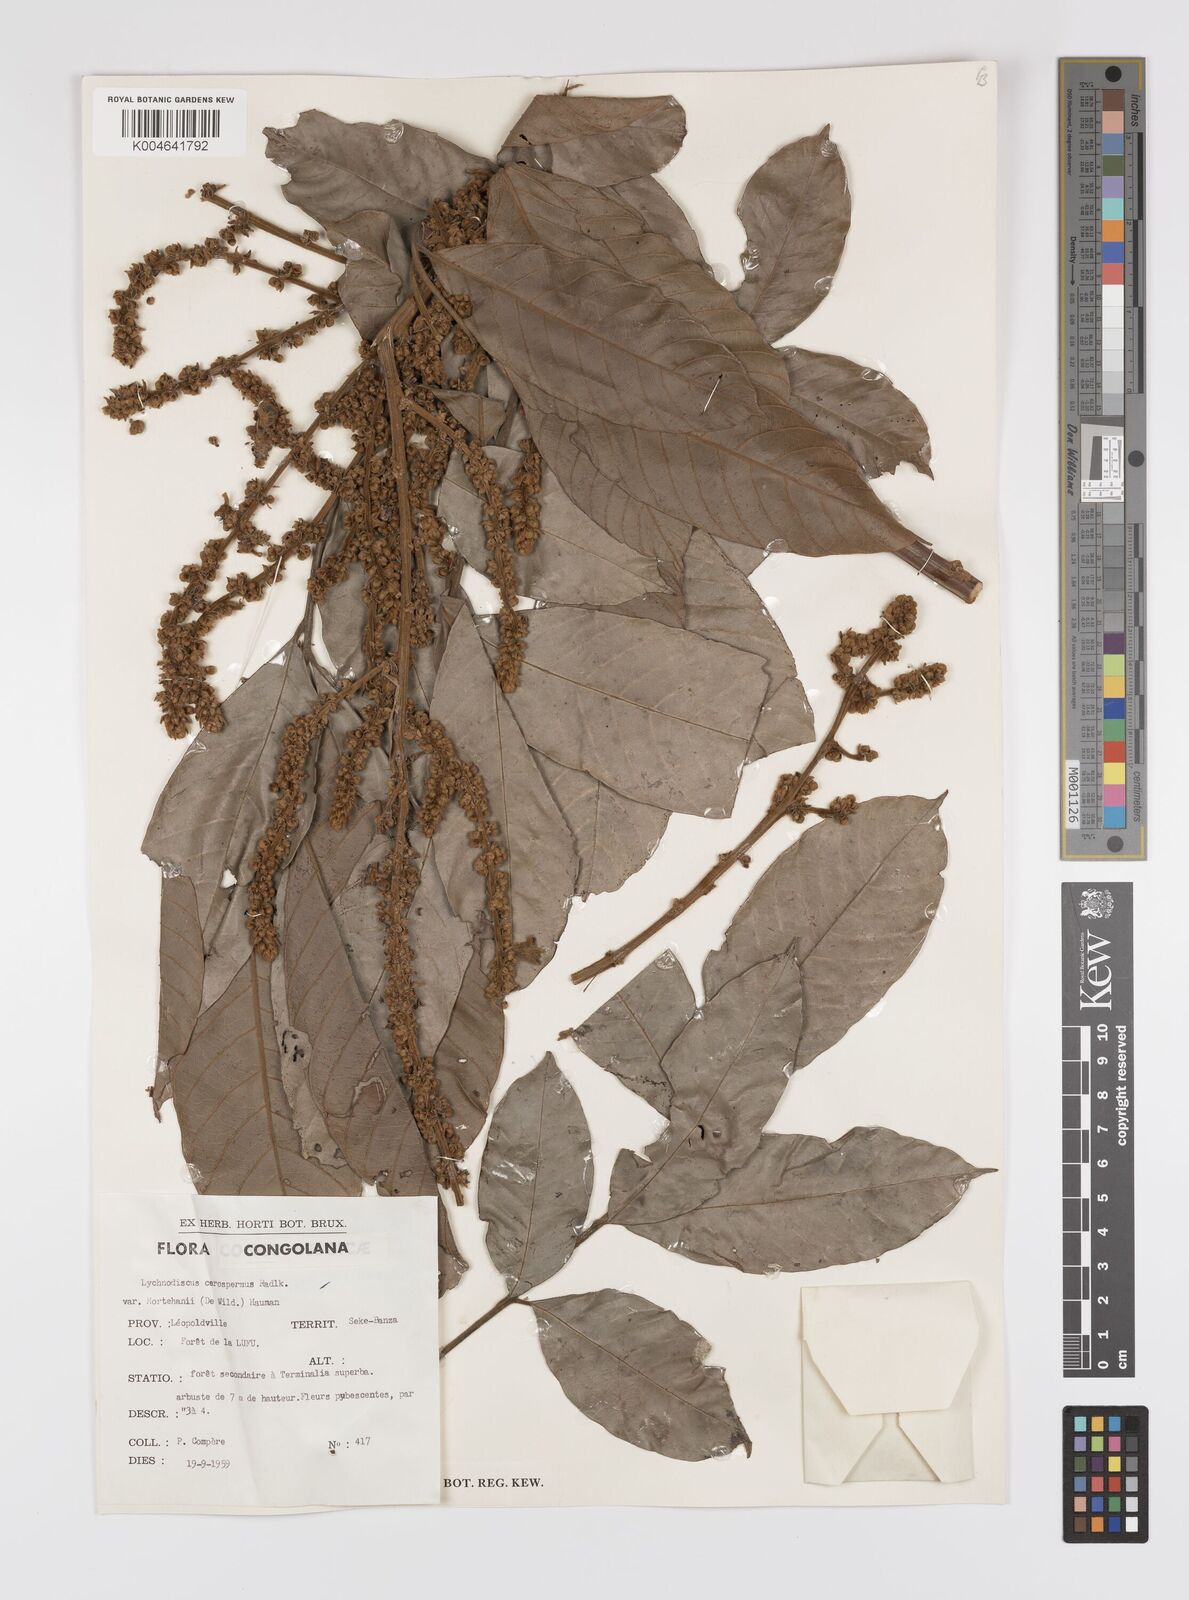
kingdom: Plantae
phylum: Tracheophyta
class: Magnoliopsida
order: Sapindales
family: Sapindaceae
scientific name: Sapindaceae
